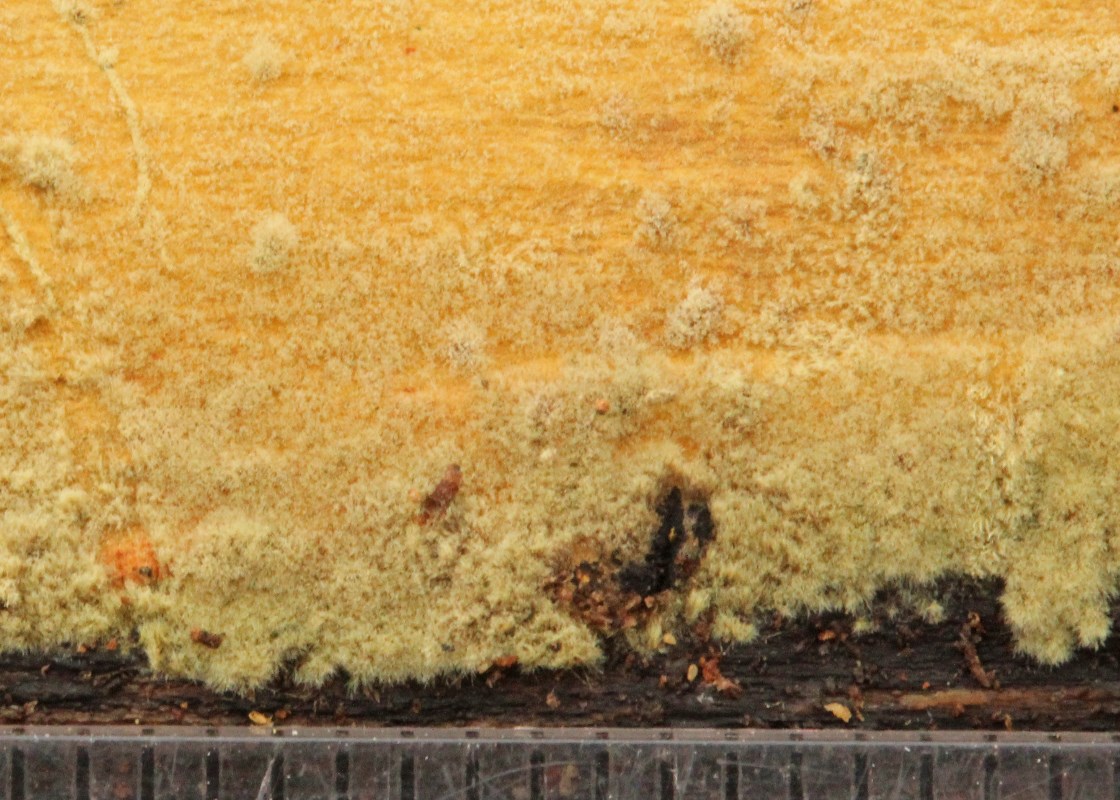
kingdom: Fungi
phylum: Ascomycota
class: Sordariomycetes
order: Xylariales
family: Hypoxylaceae
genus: Hypoxylon
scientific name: Hypoxylon
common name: kulbær
